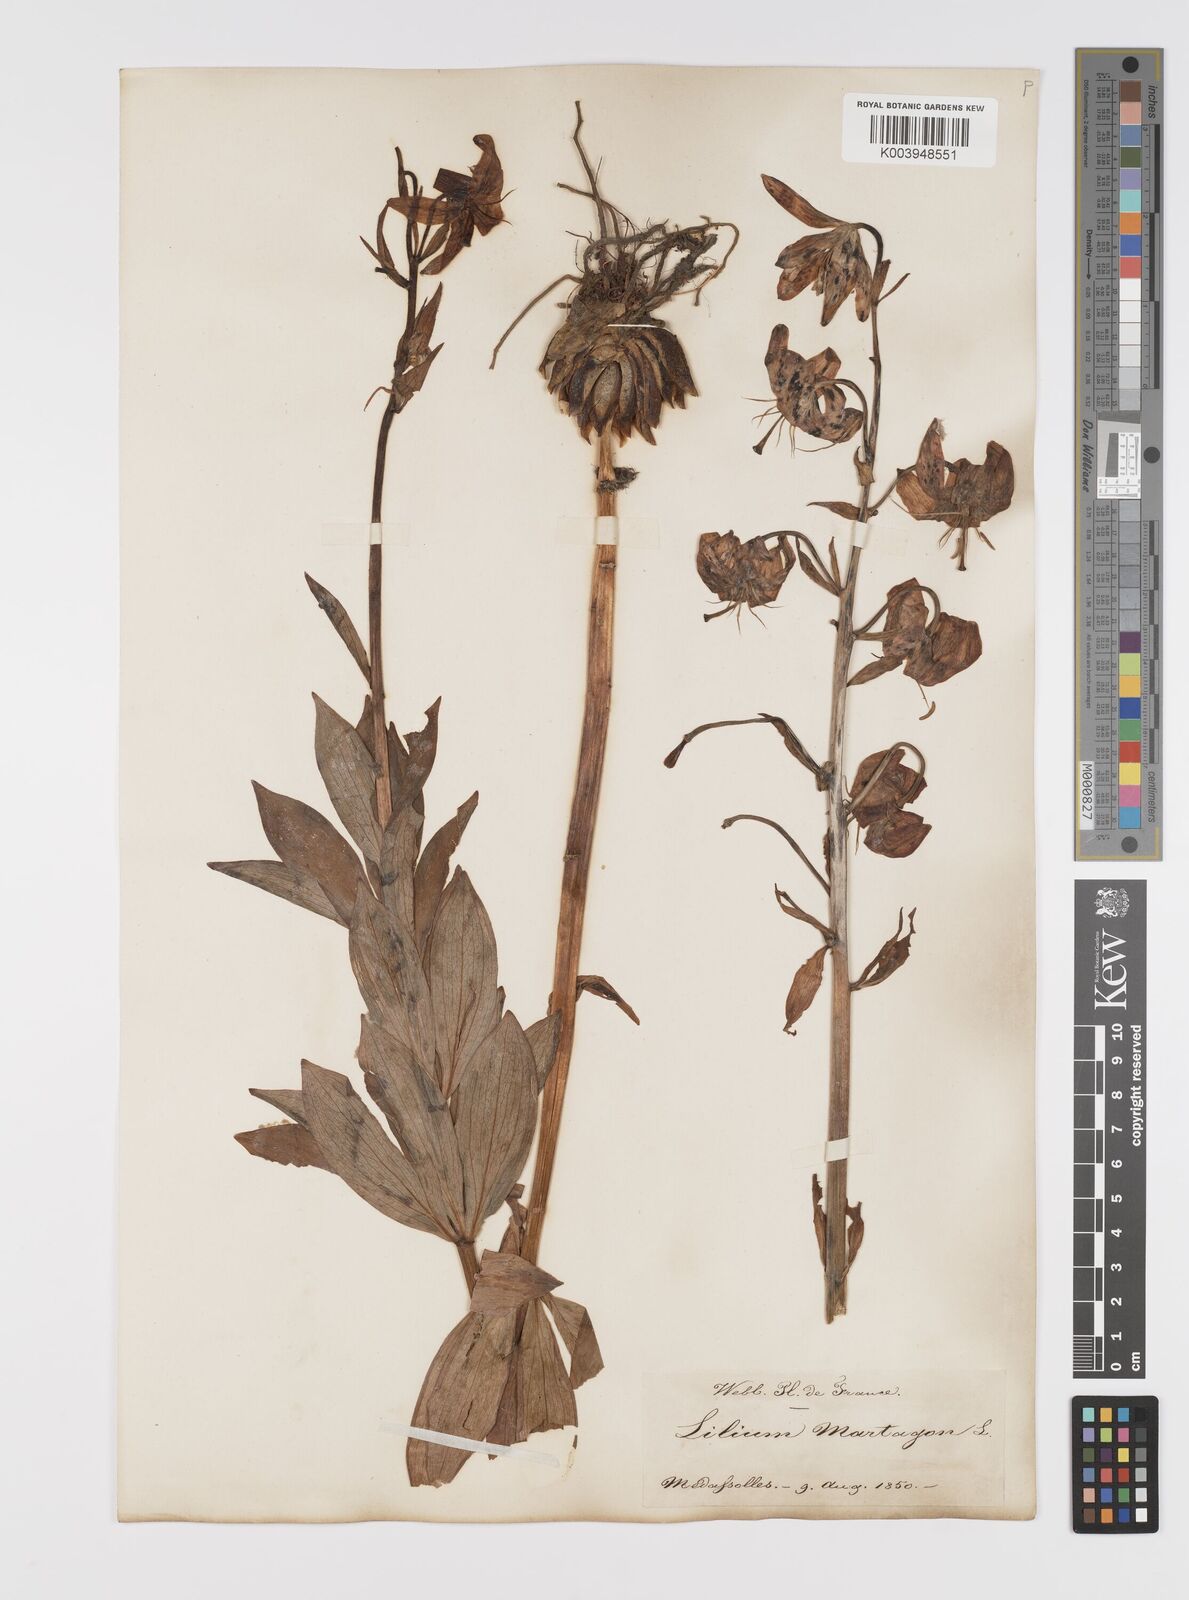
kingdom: Plantae
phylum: Tracheophyta
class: Liliopsida
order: Liliales
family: Liliaceae
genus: Lilium
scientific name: Lilium martagon
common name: Martagon lily
